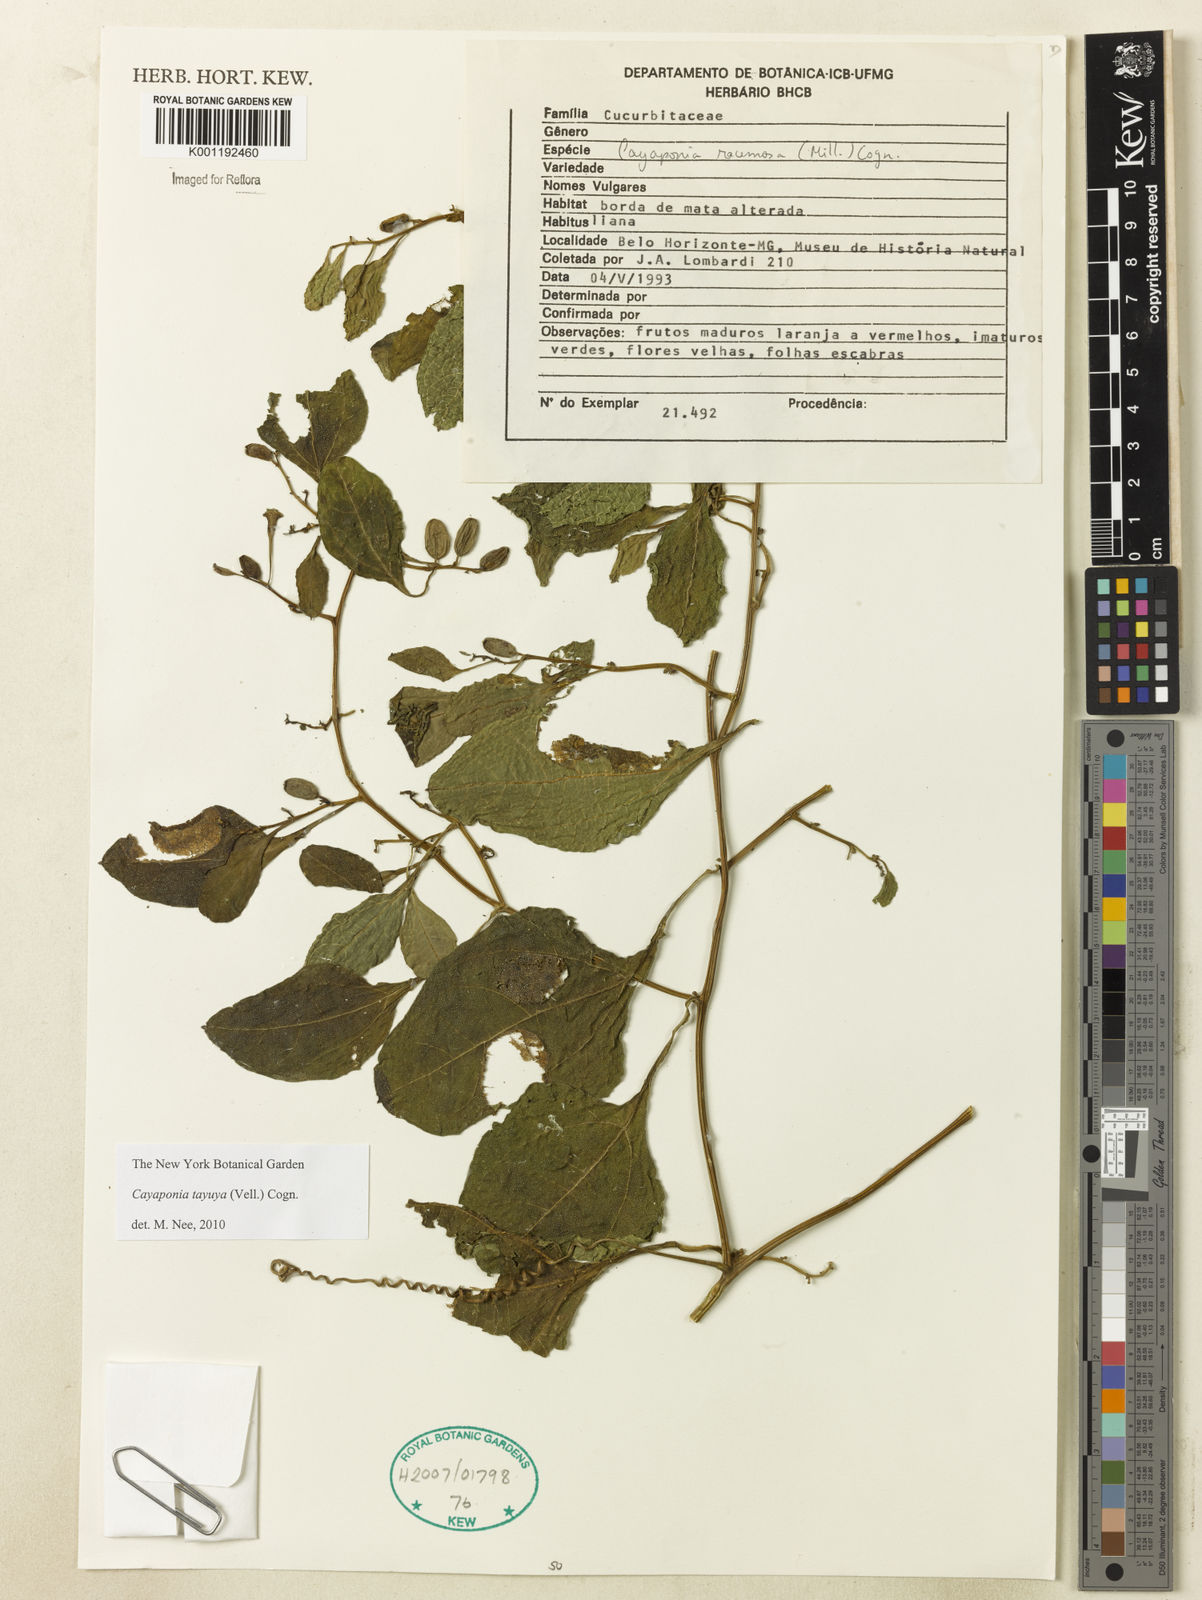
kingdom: Plantae
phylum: Tracheophyta
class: Magnoliopsida
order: Cucurbitales
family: Cucurbitaceae
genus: Cayaponia
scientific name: Cayaponia tayuya
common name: Tayuya
